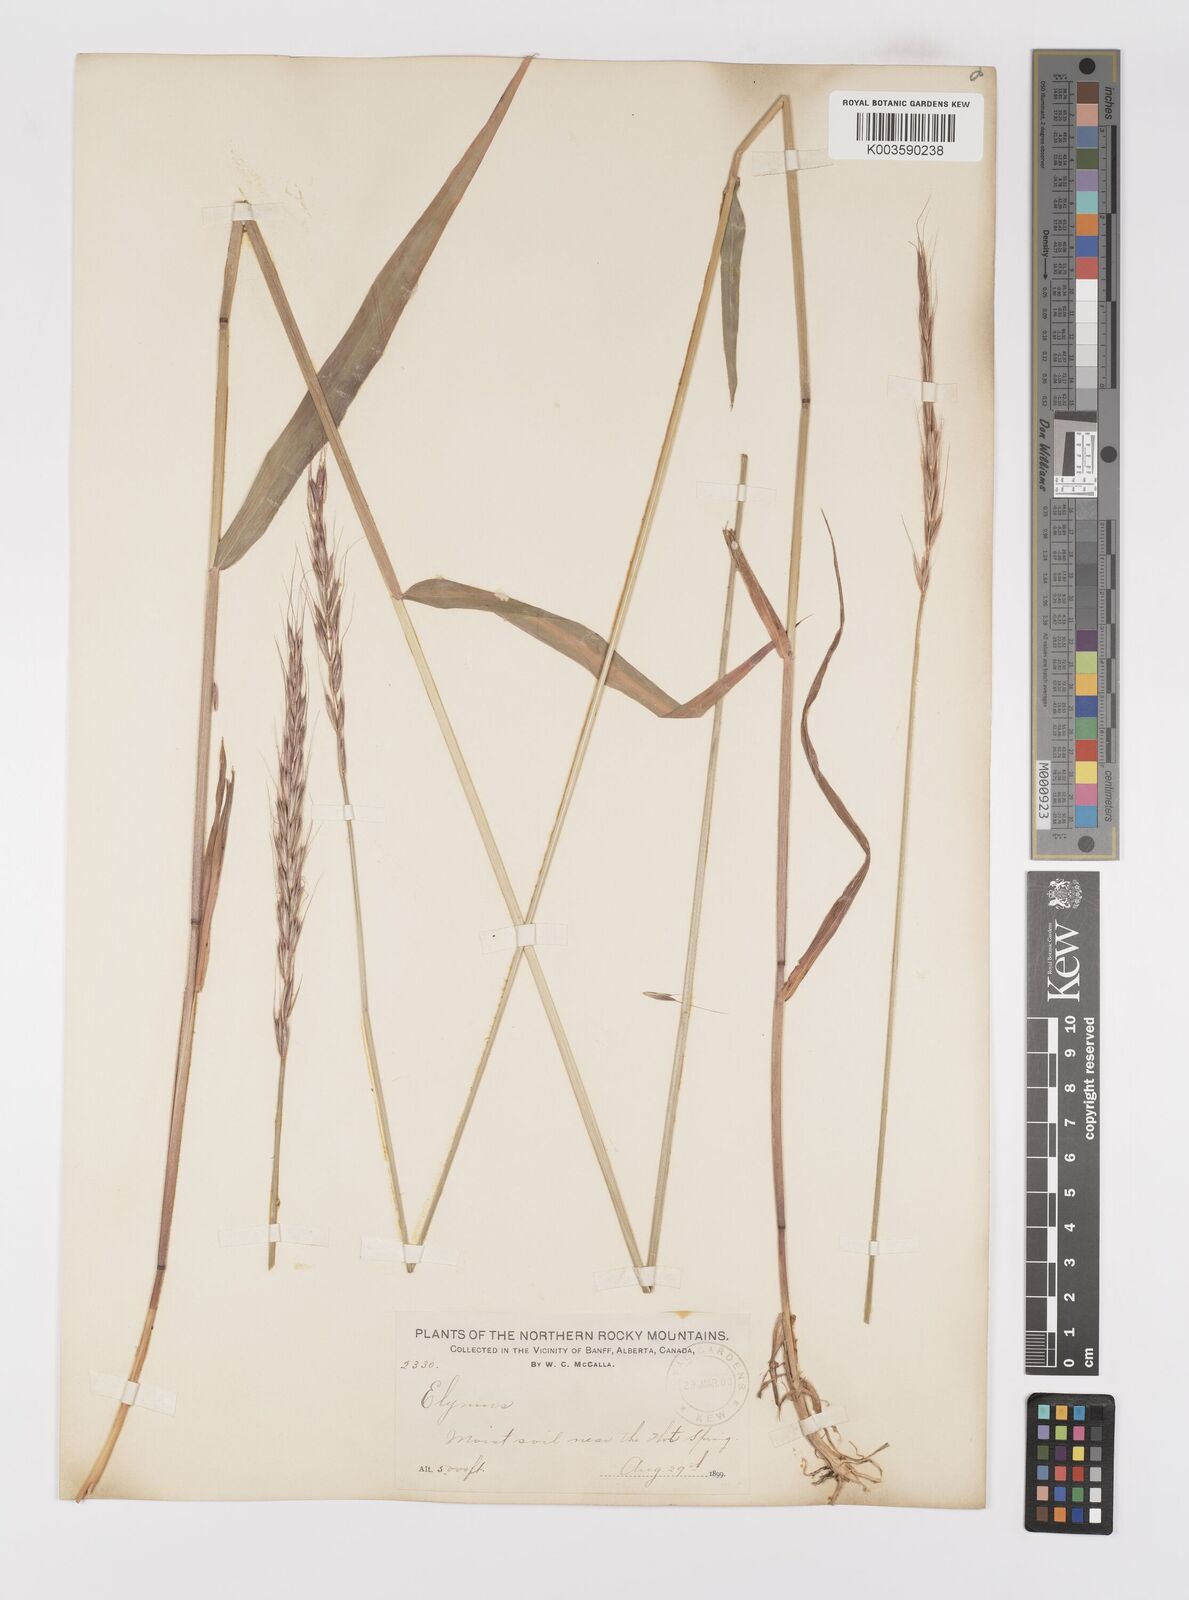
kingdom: Plantae
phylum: Tracheophyta
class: Liliopsida
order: Poales
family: Poaceae
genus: Elymus
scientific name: Elymus
